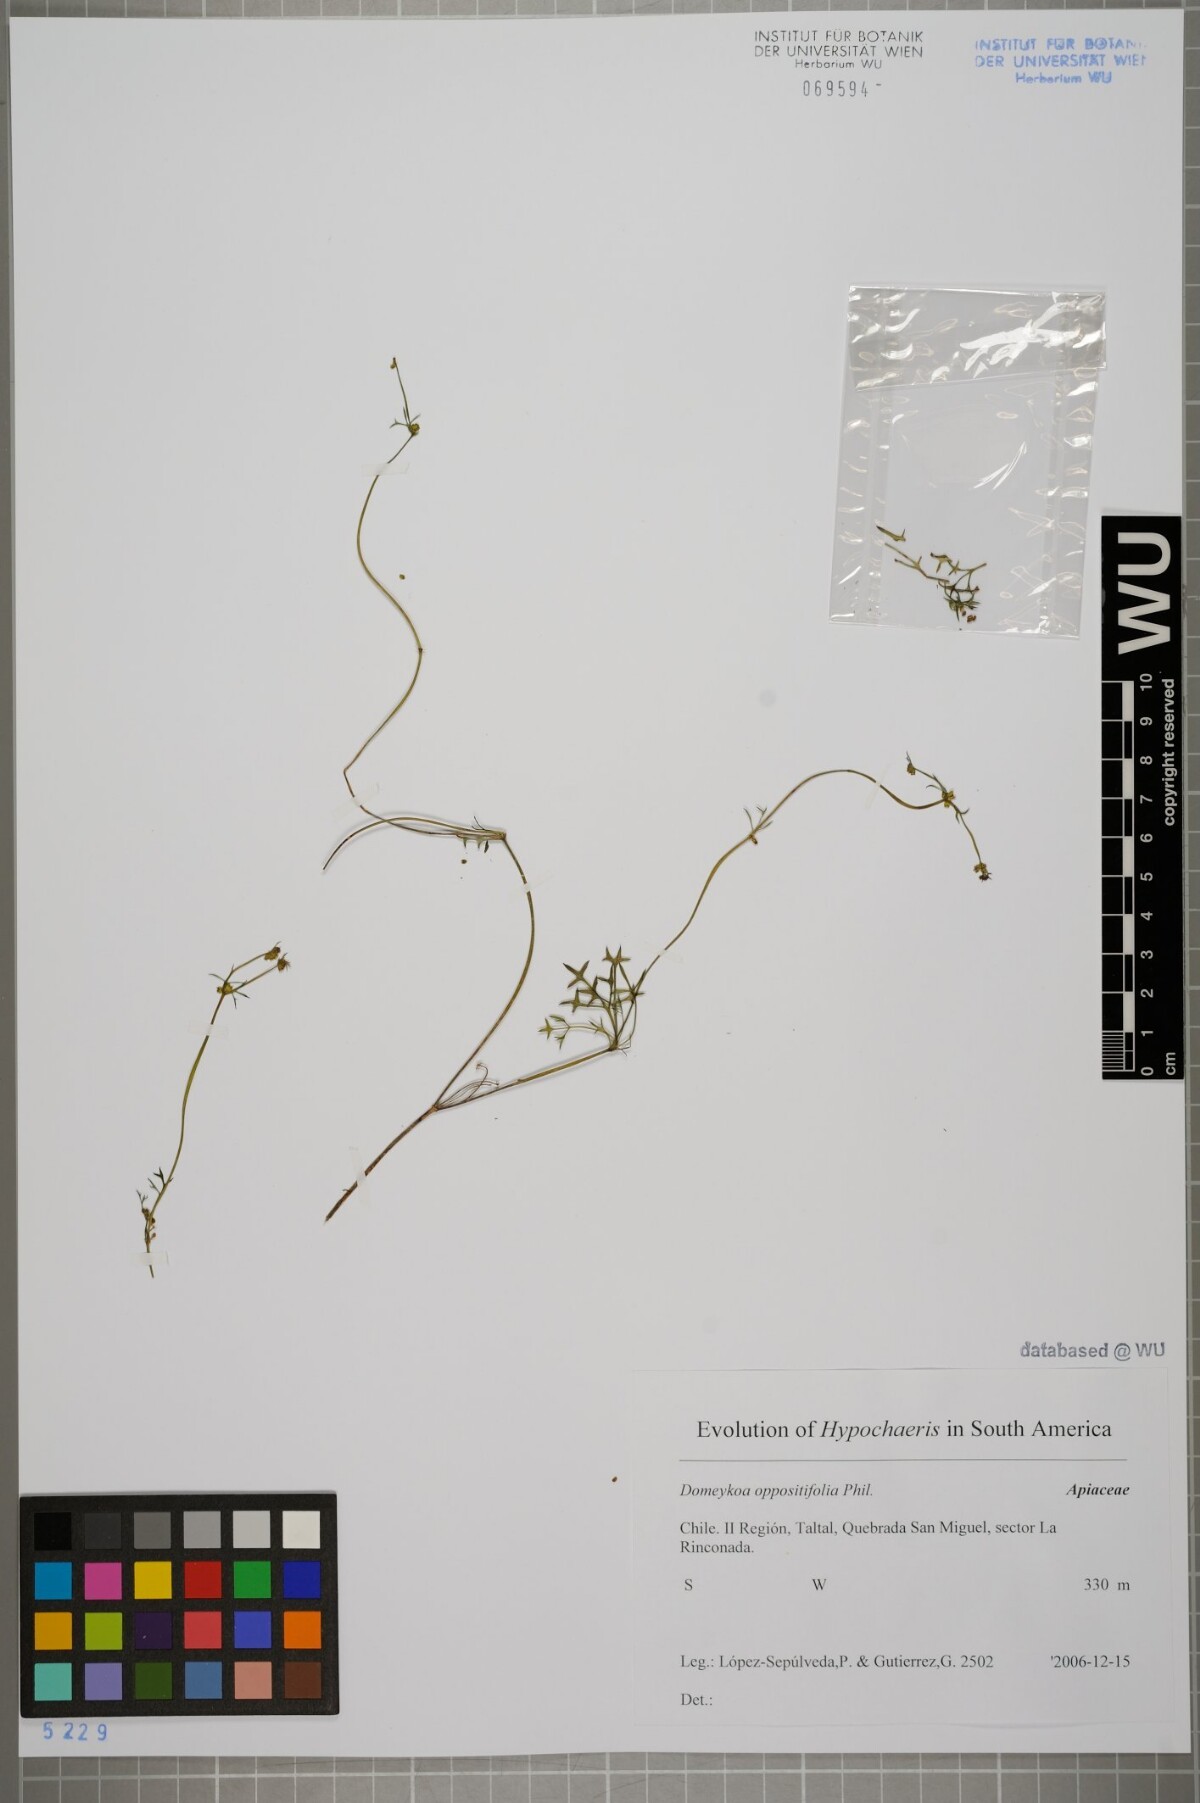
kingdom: Plantae
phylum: Tracheophyta
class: Magnoliopsida
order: Apiales
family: Apiaceae
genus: Domeykoa
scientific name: Domeykoa oppositifolia
